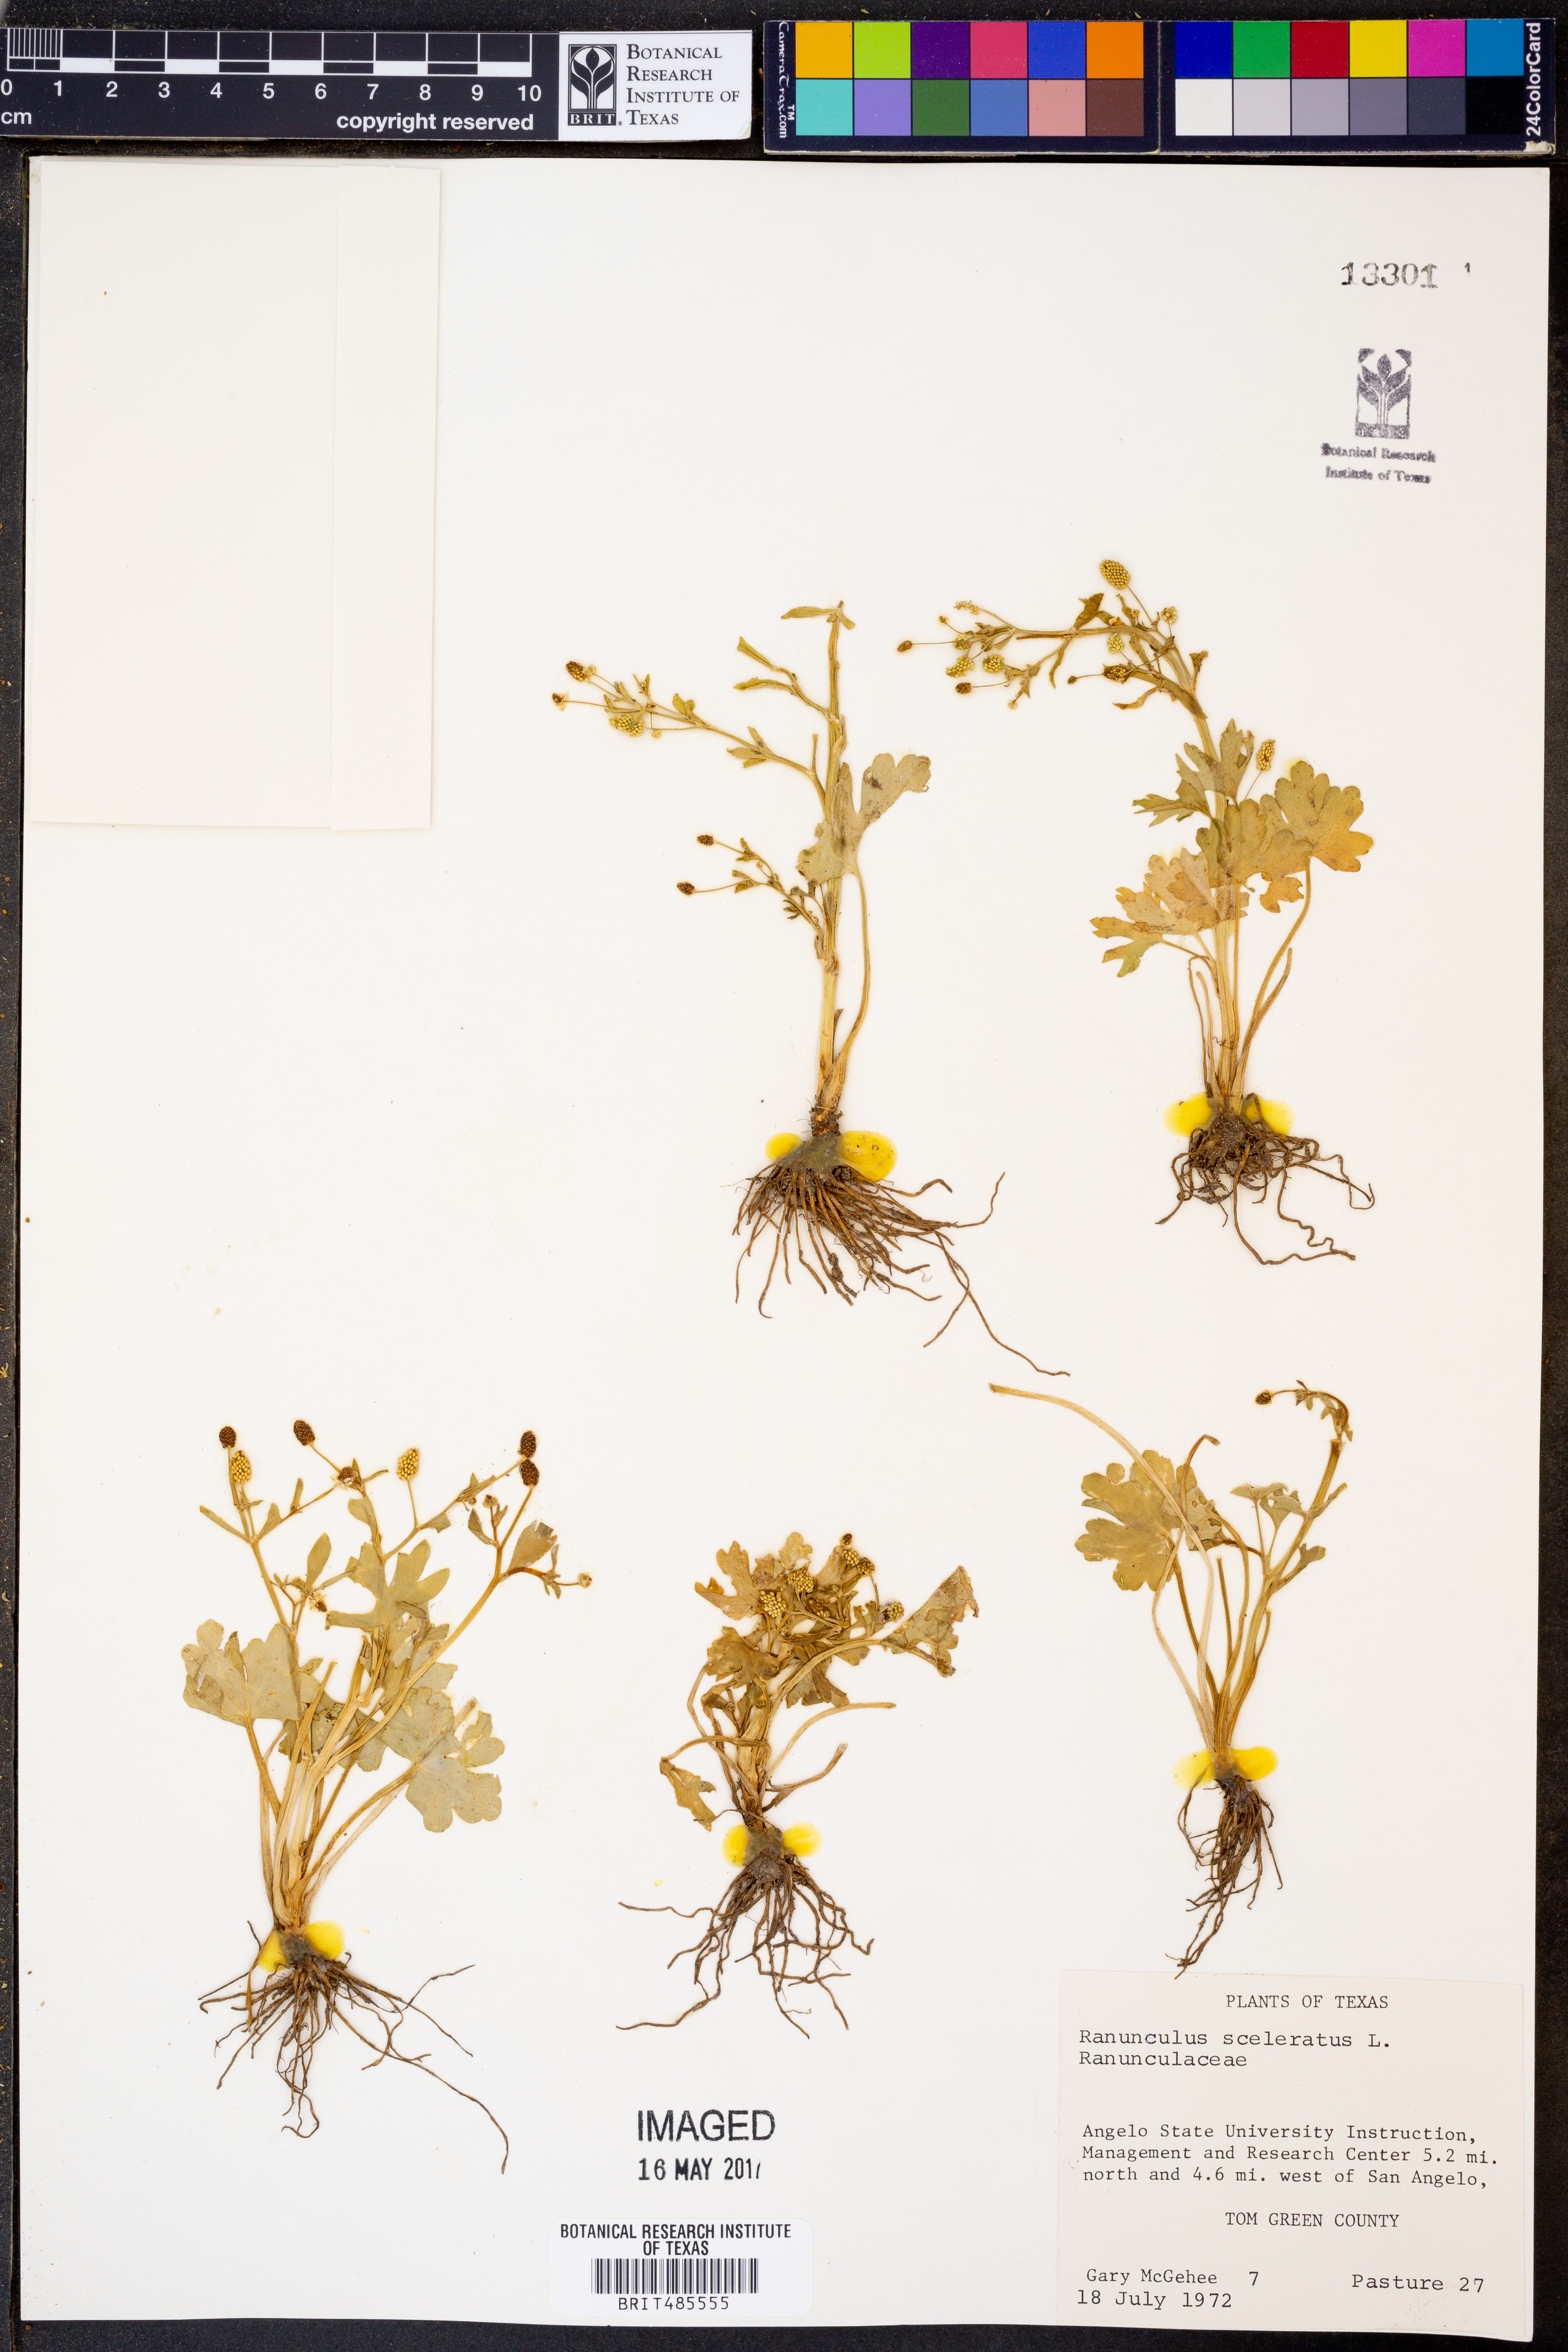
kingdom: Plantae
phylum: Tracheophyta
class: Magnoliopsida
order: Ranunculales
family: Ranunculaceae
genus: Ranunculus
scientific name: Ranunculus sceleratus
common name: Celery-leaved buttercup
